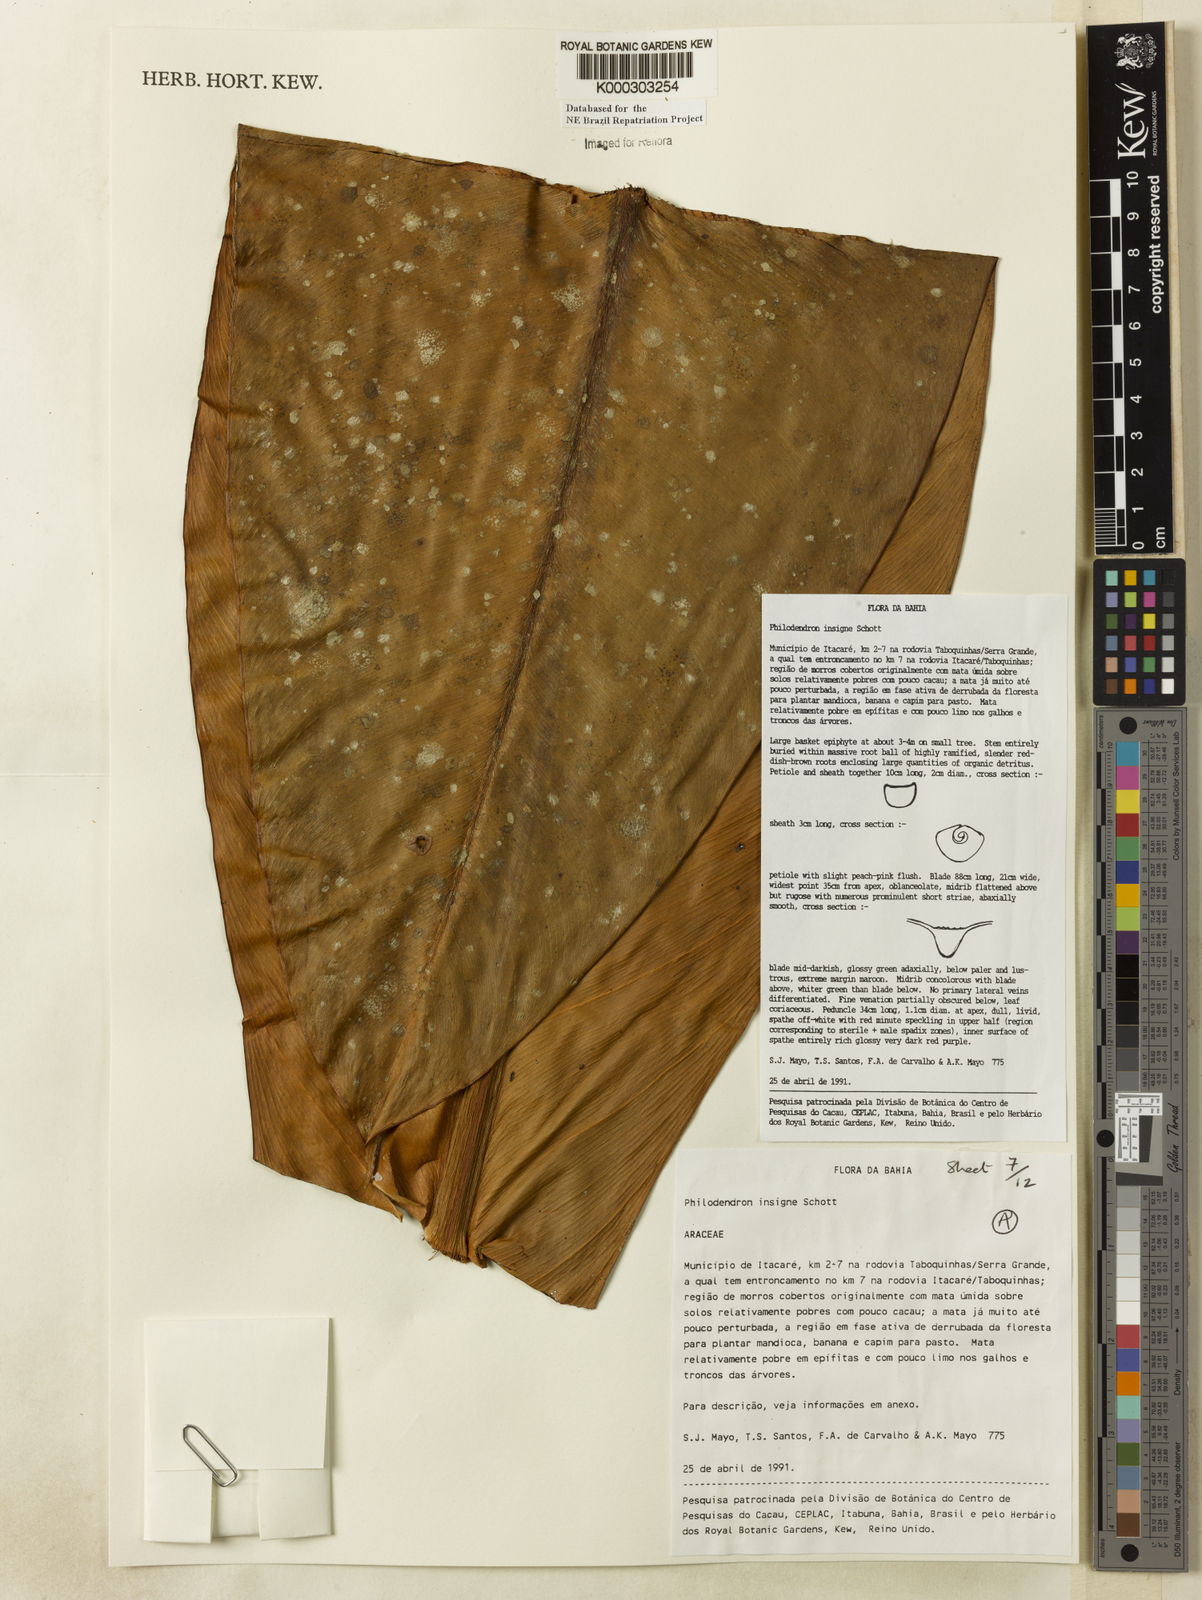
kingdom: Plantae
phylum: Tracheophyta
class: Liliopsida
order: Alismatales
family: Araceae
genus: Philodendron
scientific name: Philodendron insigne
